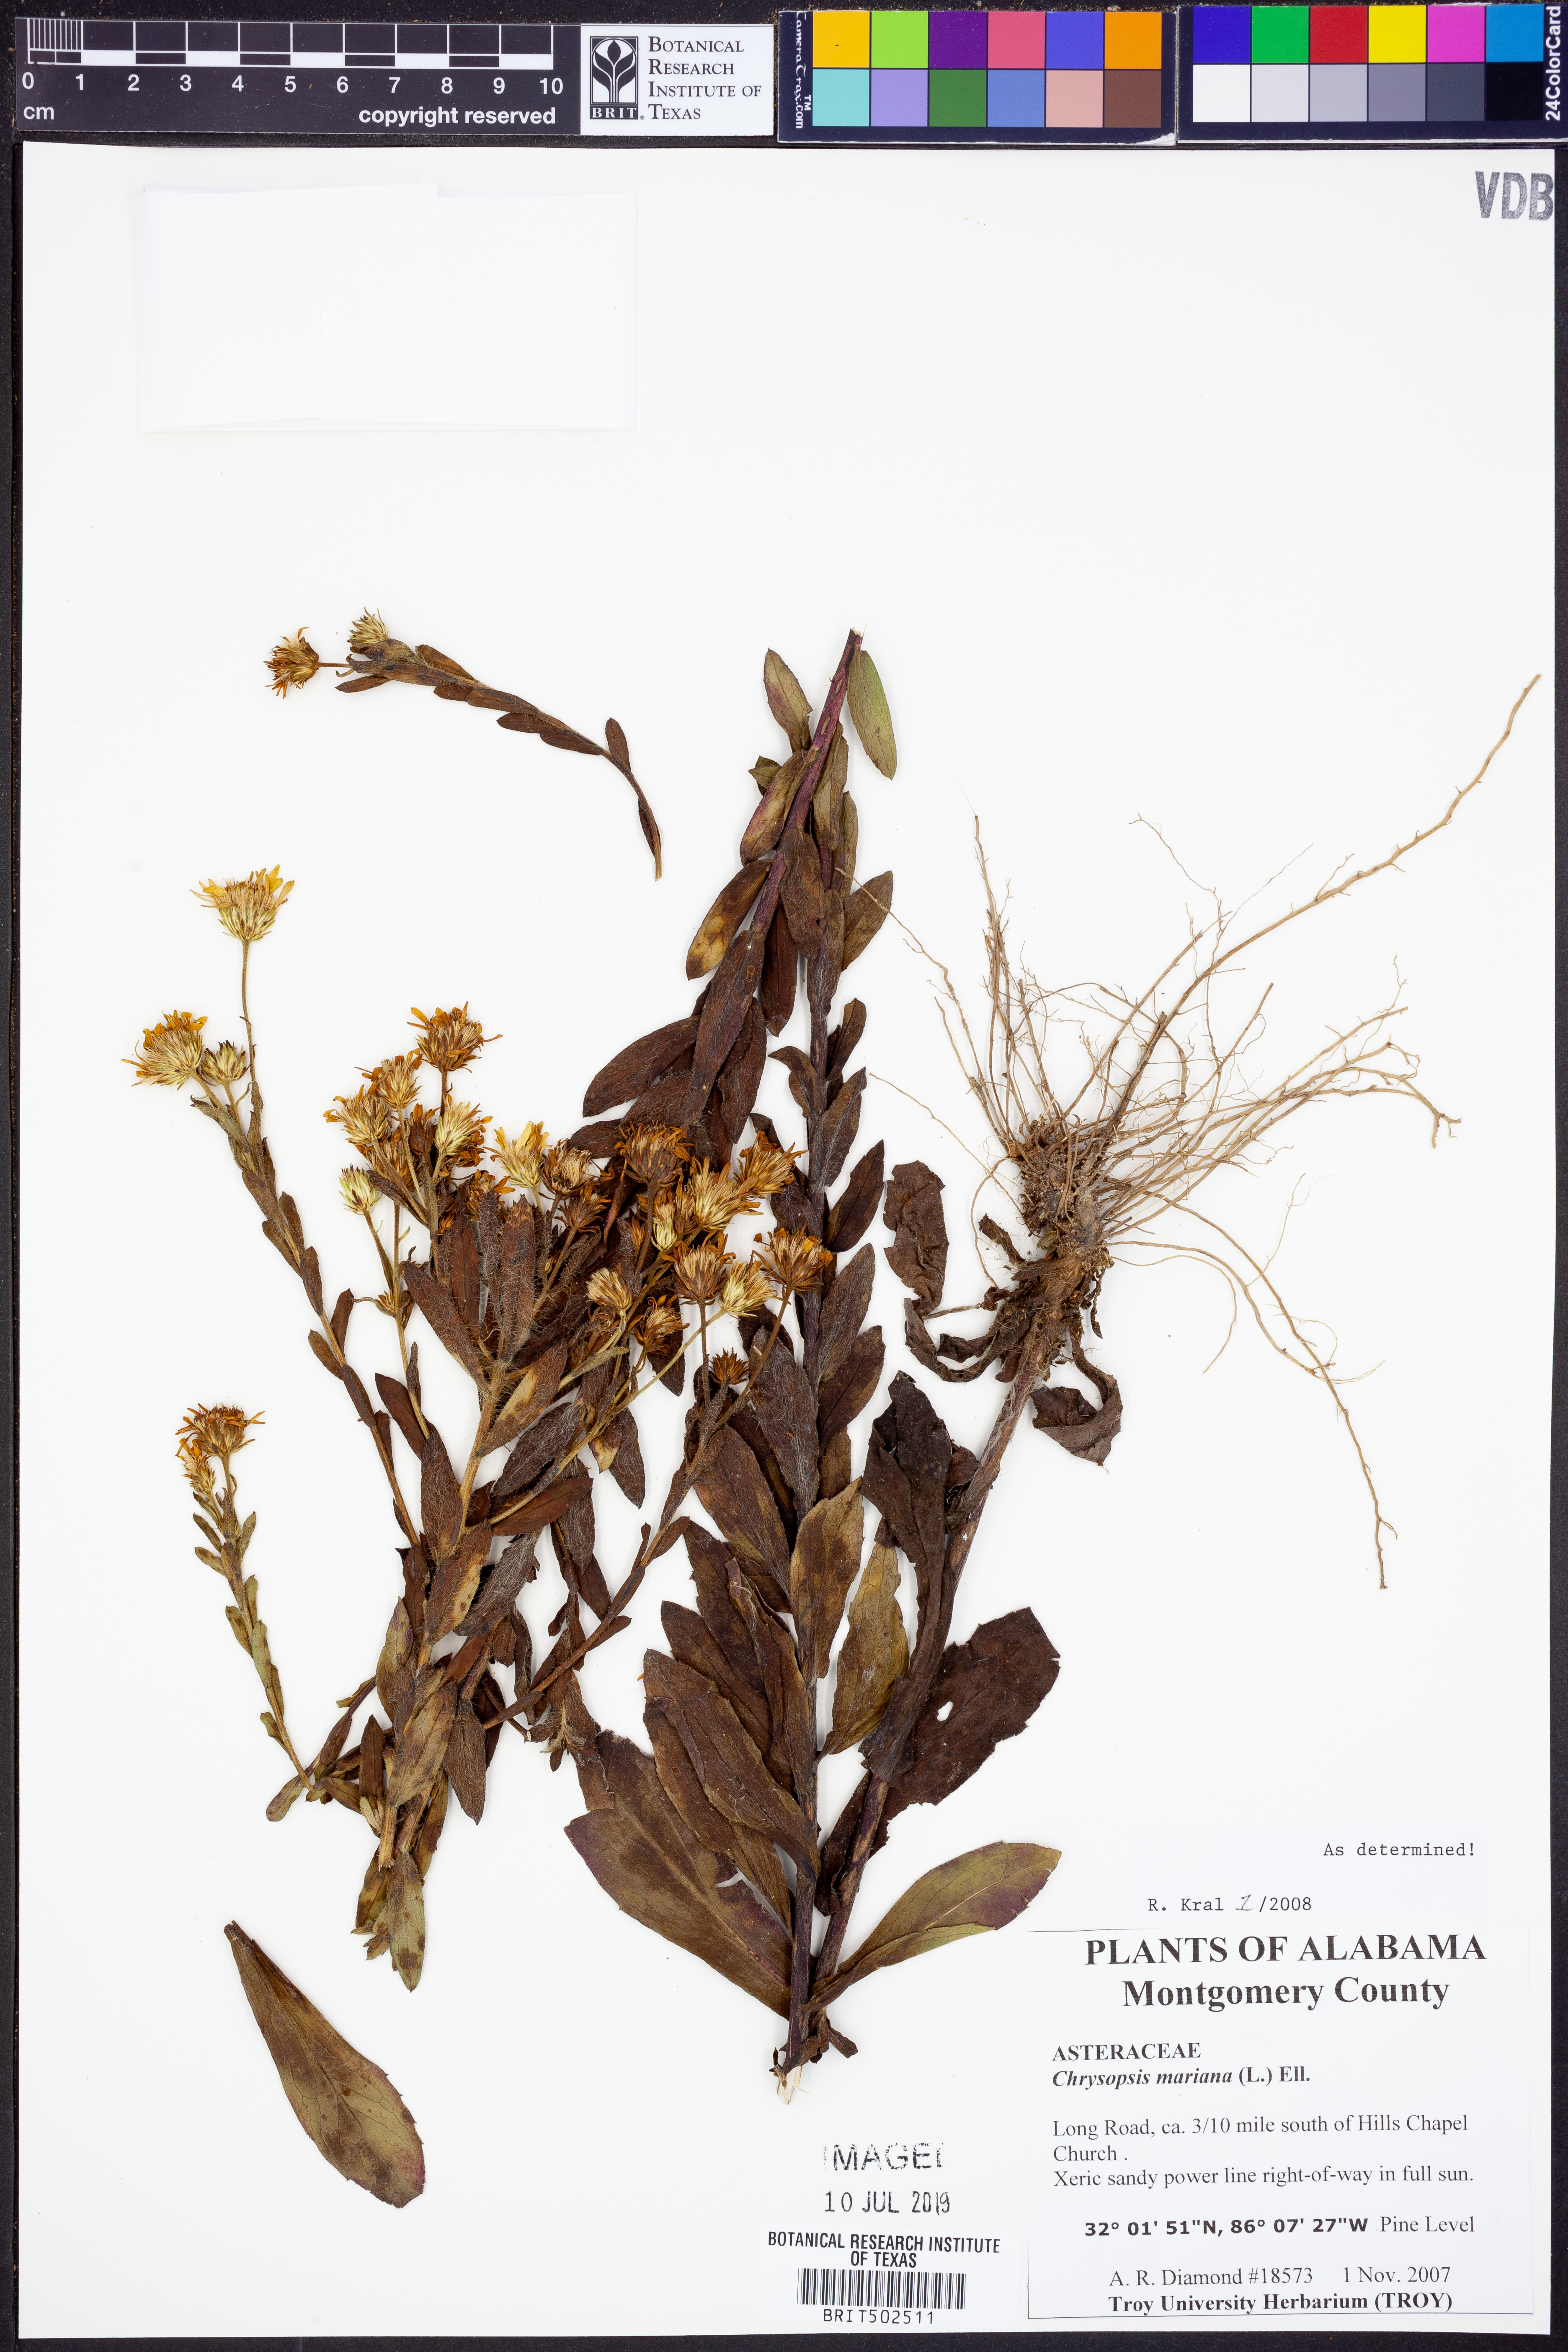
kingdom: Plantae
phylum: Tracheophyta
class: Magnoliopsida
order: Asterales
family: Asteraceae
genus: Chrysopsis
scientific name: Chrysopsis mariana
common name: Maryland golden-aster
